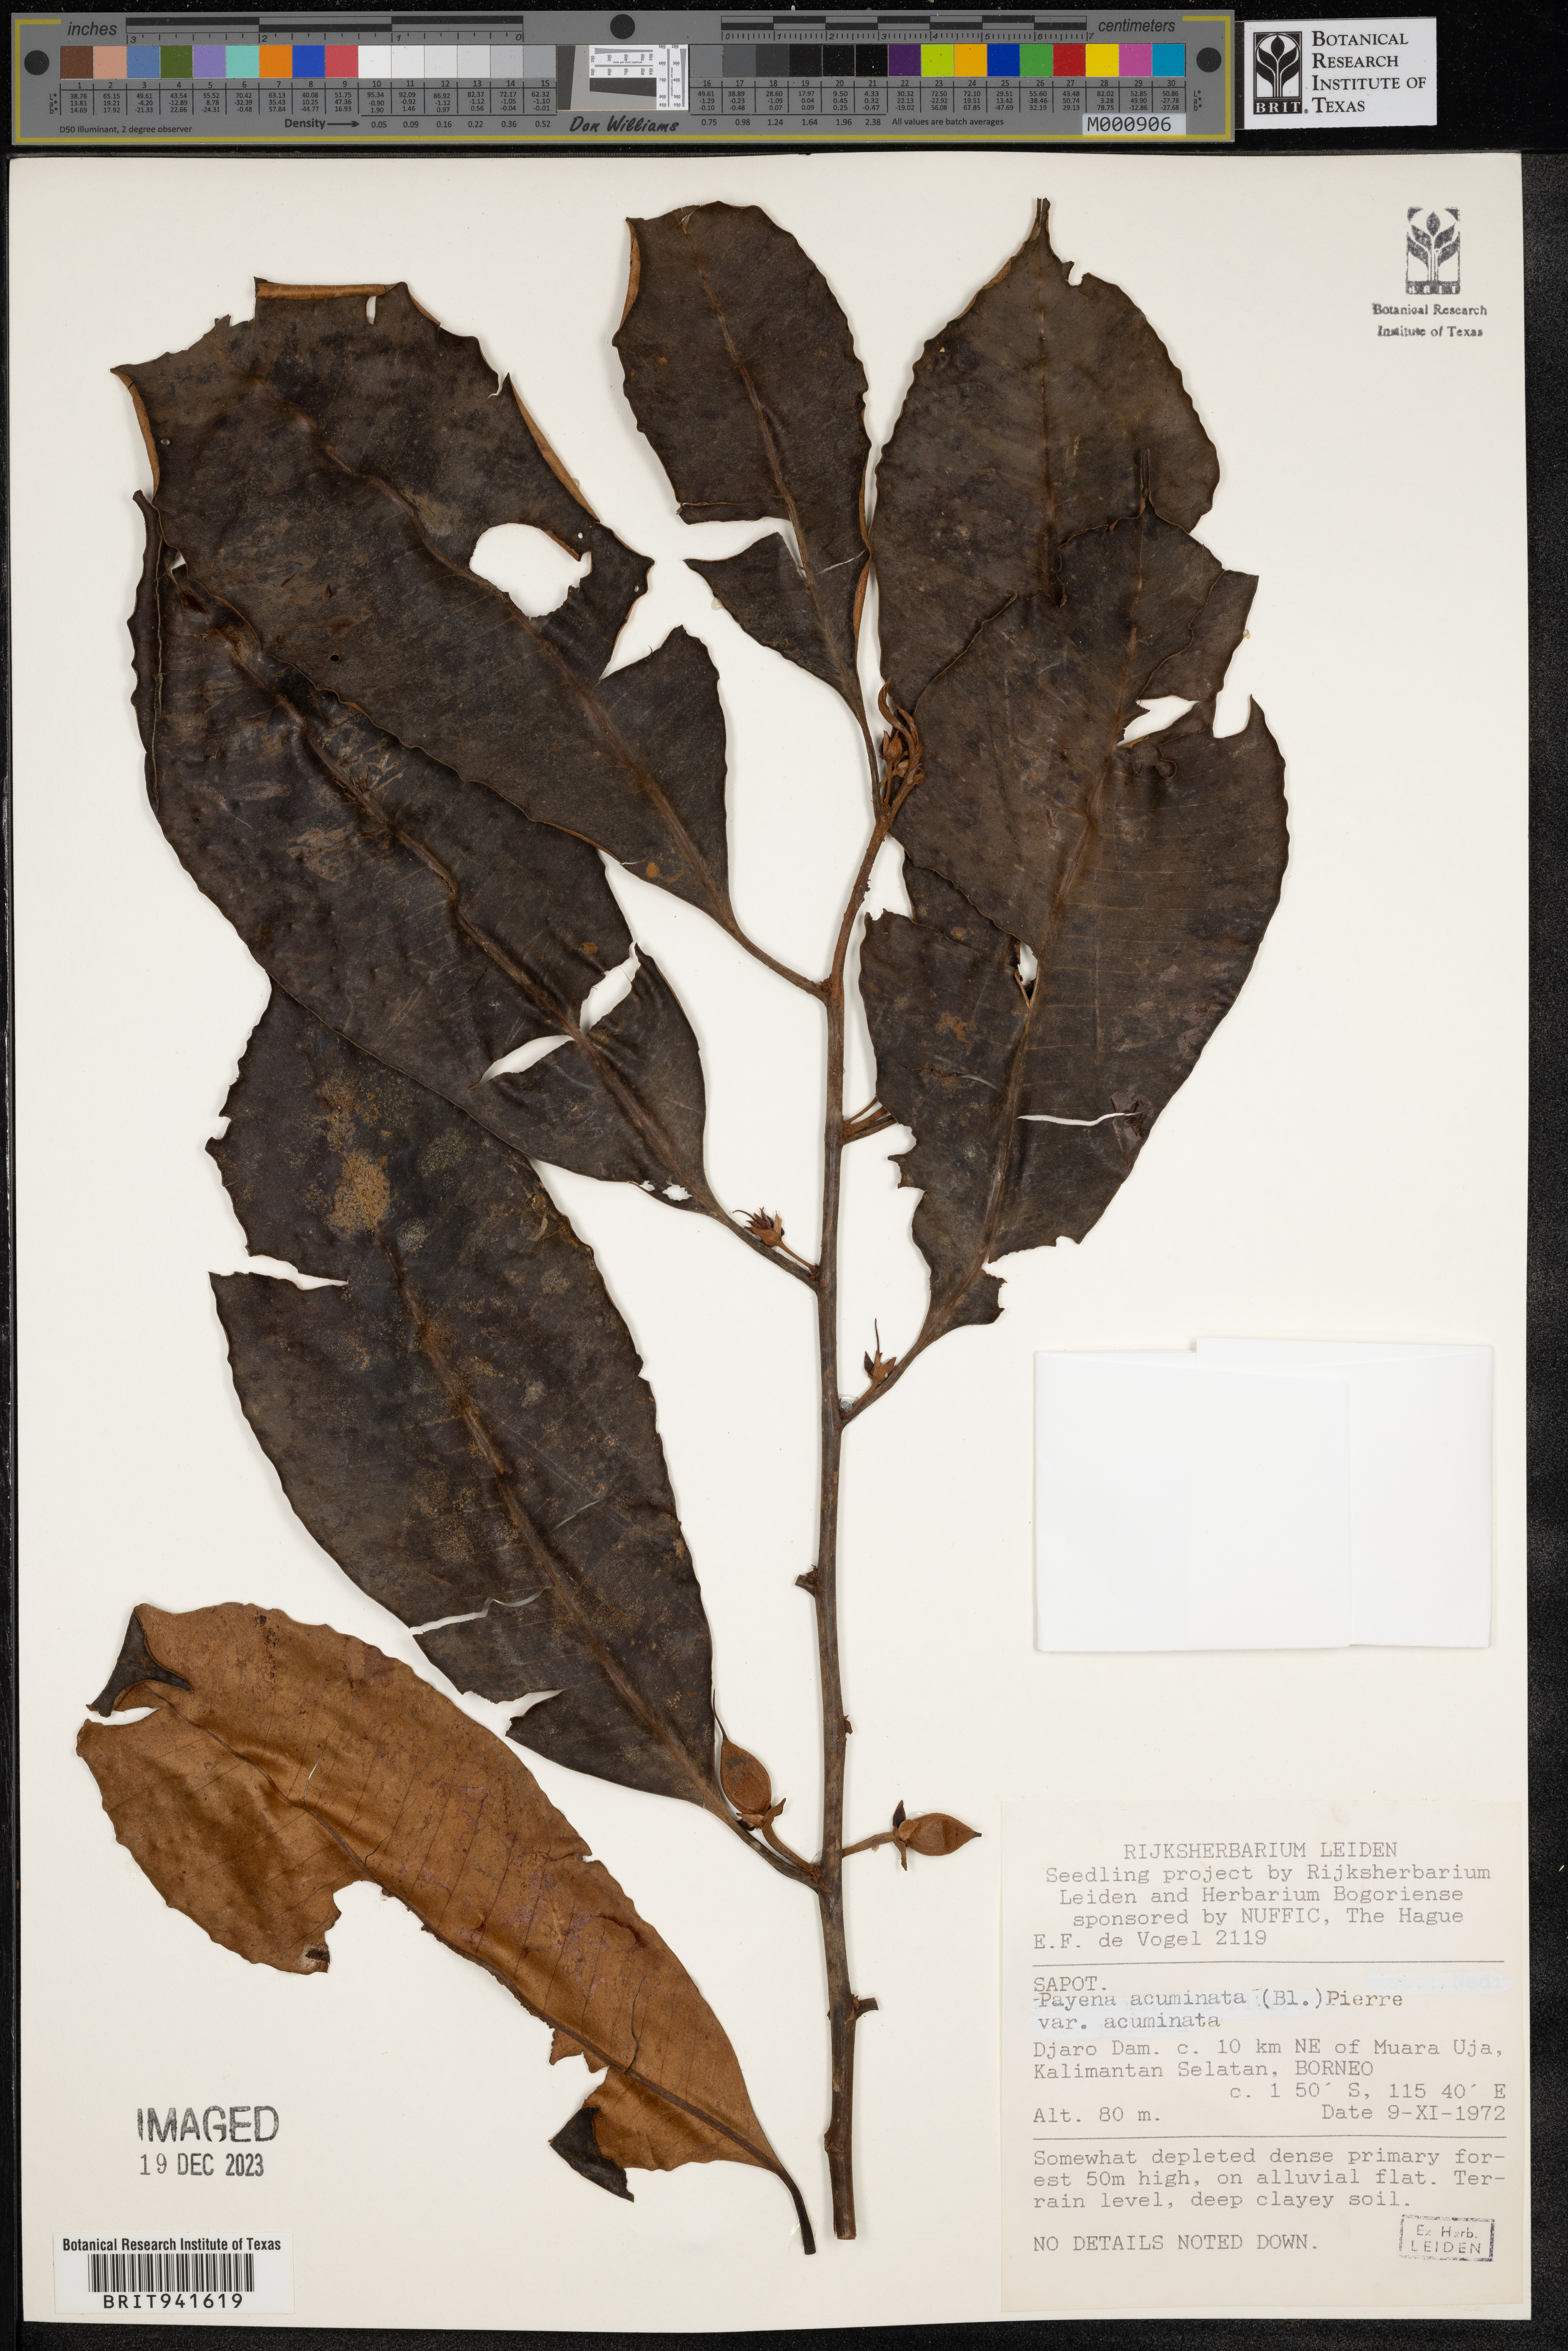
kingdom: Plantae
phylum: Tracheophyta
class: Magnoliopsida
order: Ericales
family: Sapotaceae
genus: Payena
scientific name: Payena
